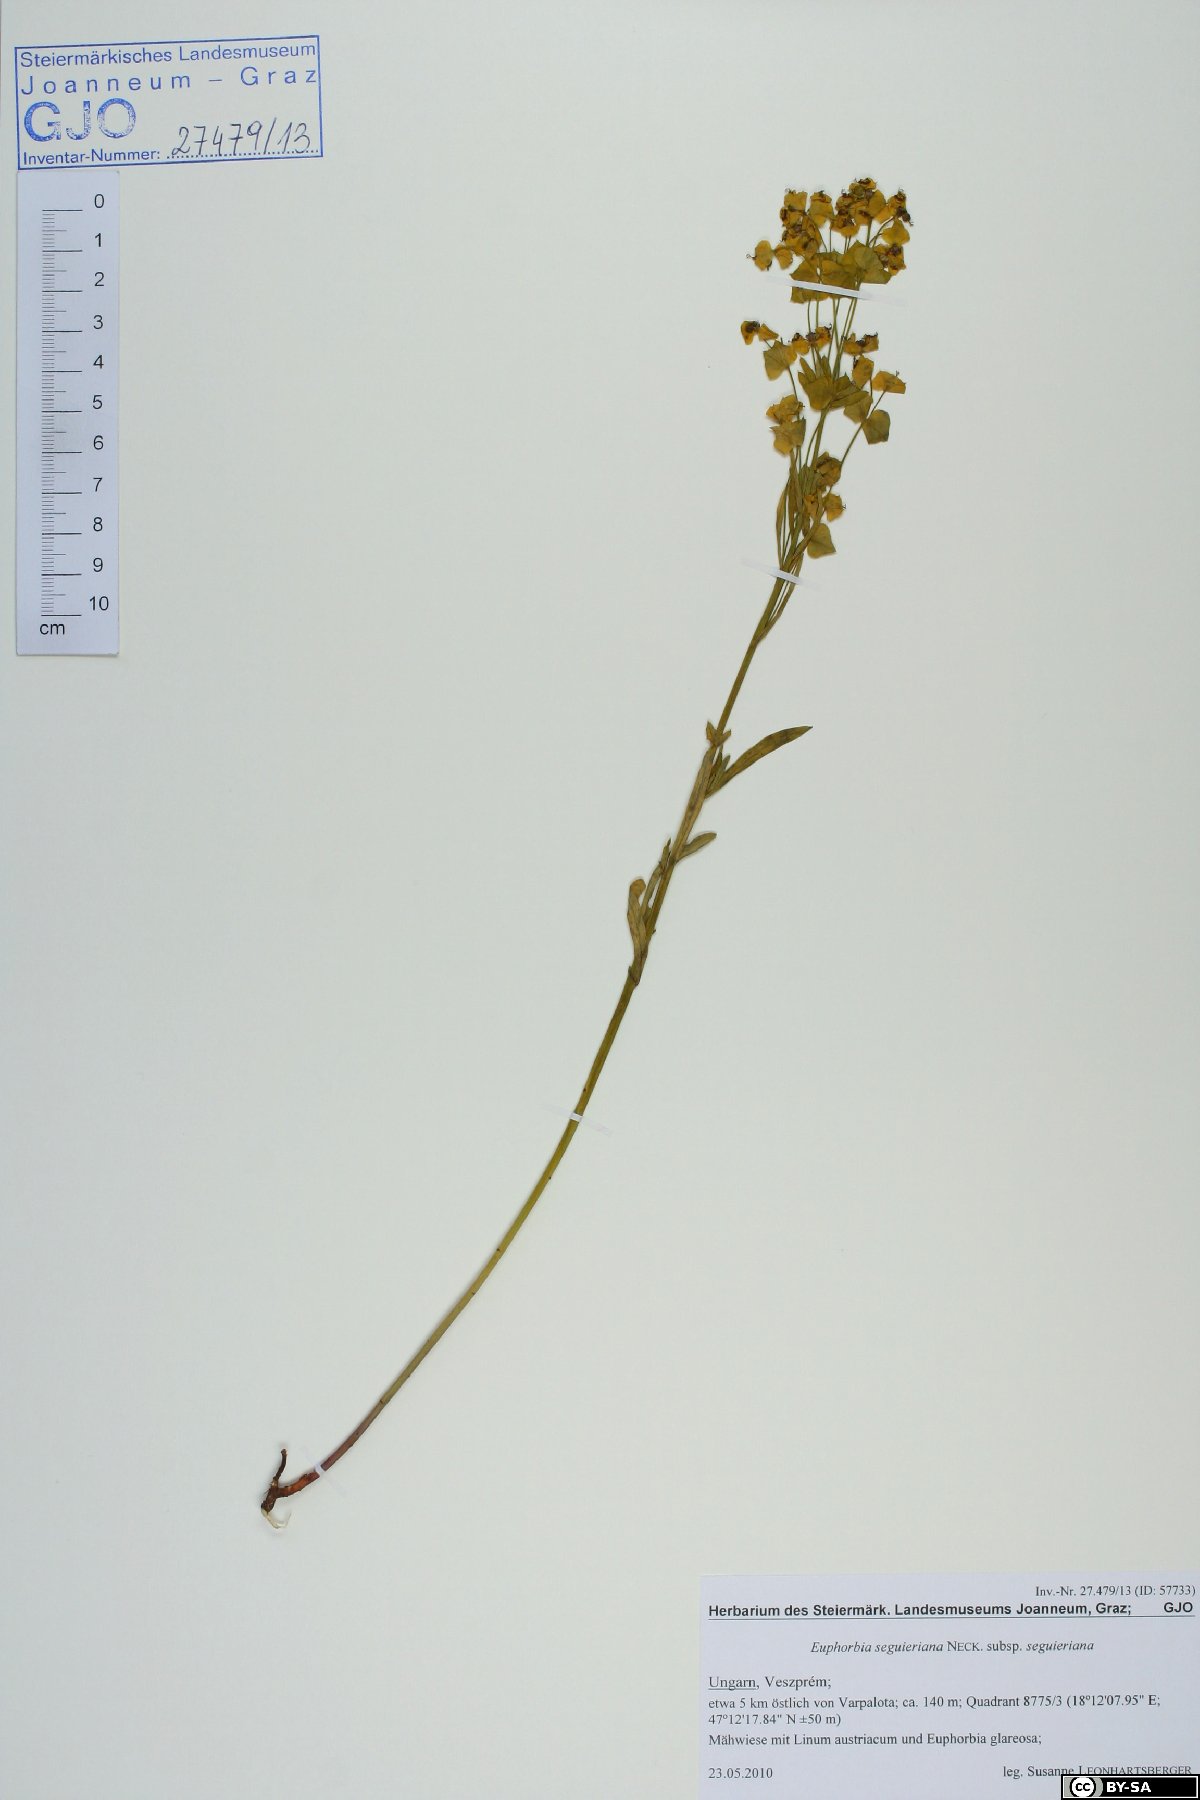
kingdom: Plantae
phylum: Tracheophyta
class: Magnoliopsida
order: Malpighiales
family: Euphorbiaceae
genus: Euphorbia
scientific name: Euphorbia seguieriana
